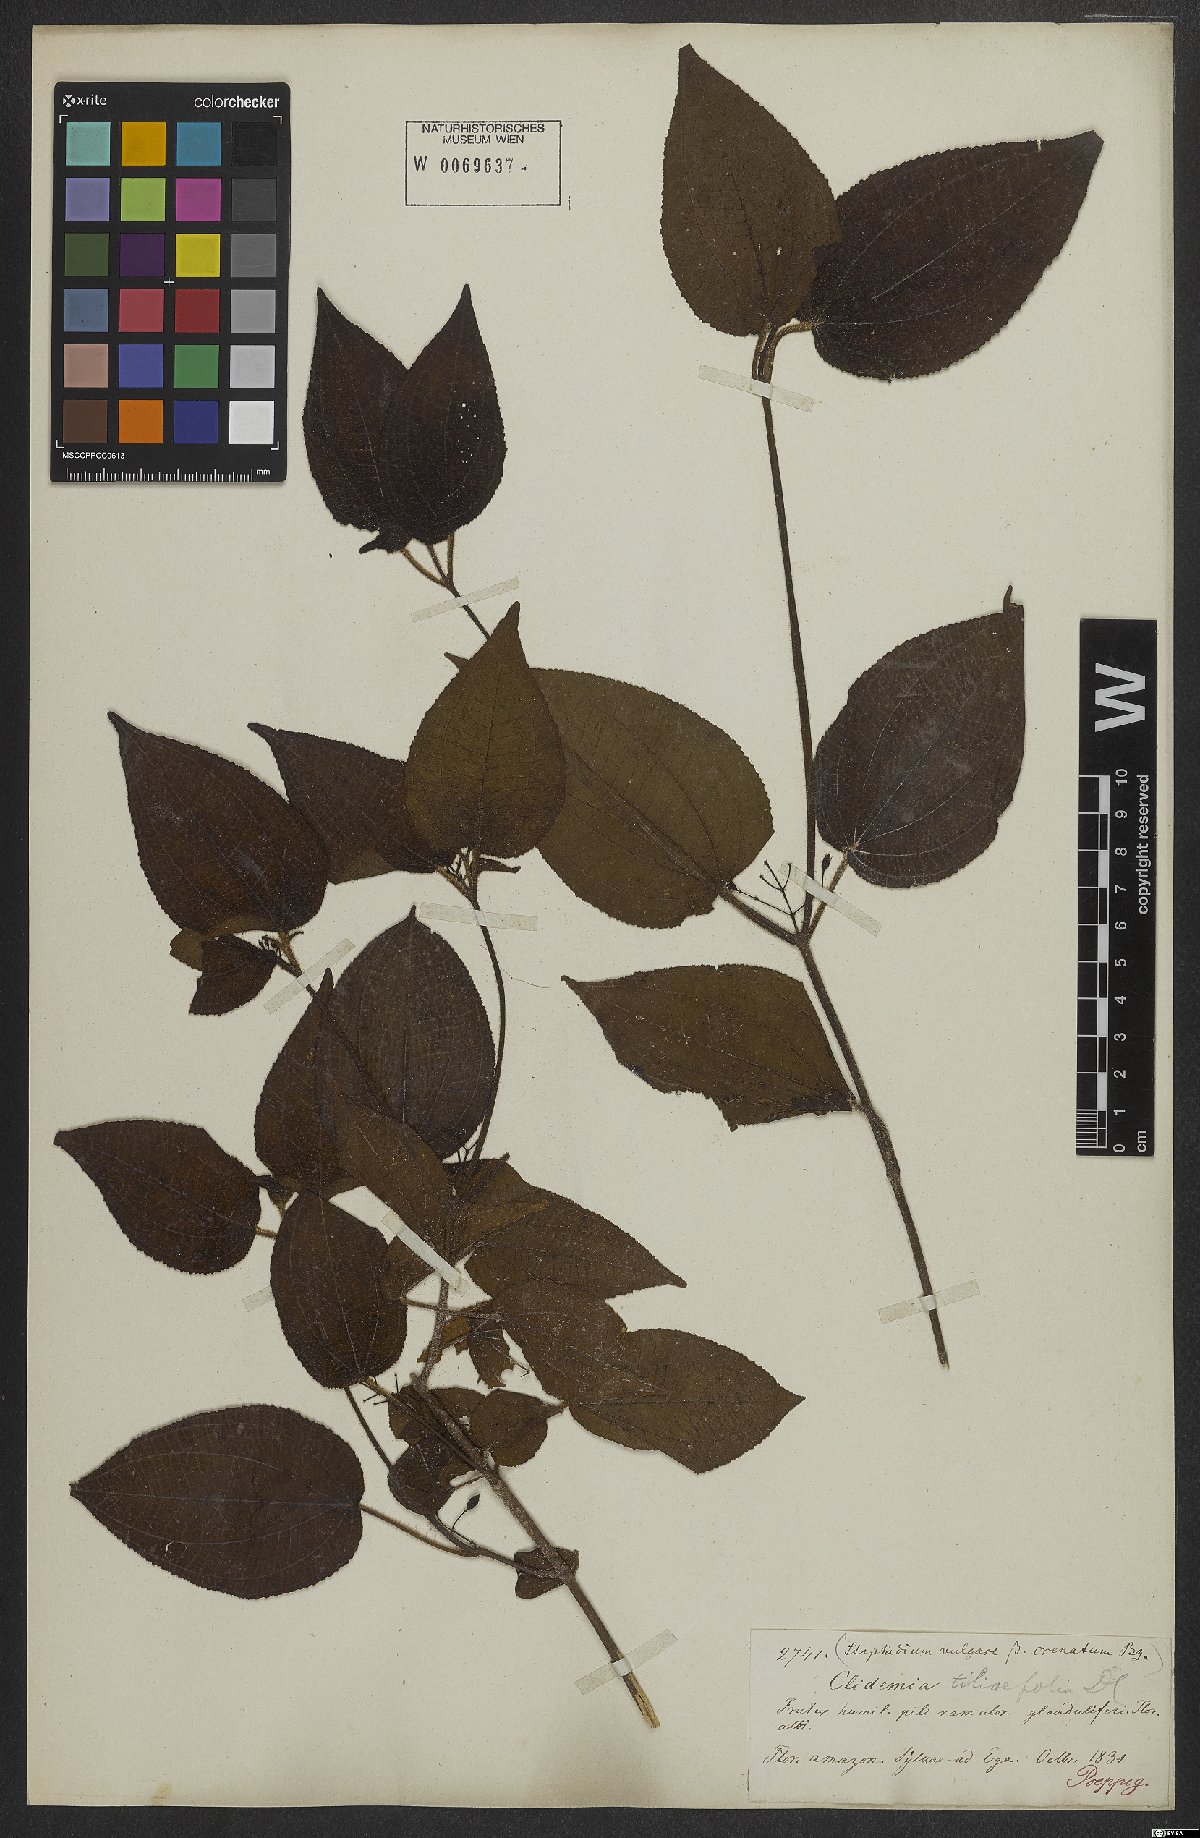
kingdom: Plantae
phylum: Tracheophyta
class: Magnoliopsida
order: Myrtales
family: Melastomataceae
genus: Miconia
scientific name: Miconia crenata
